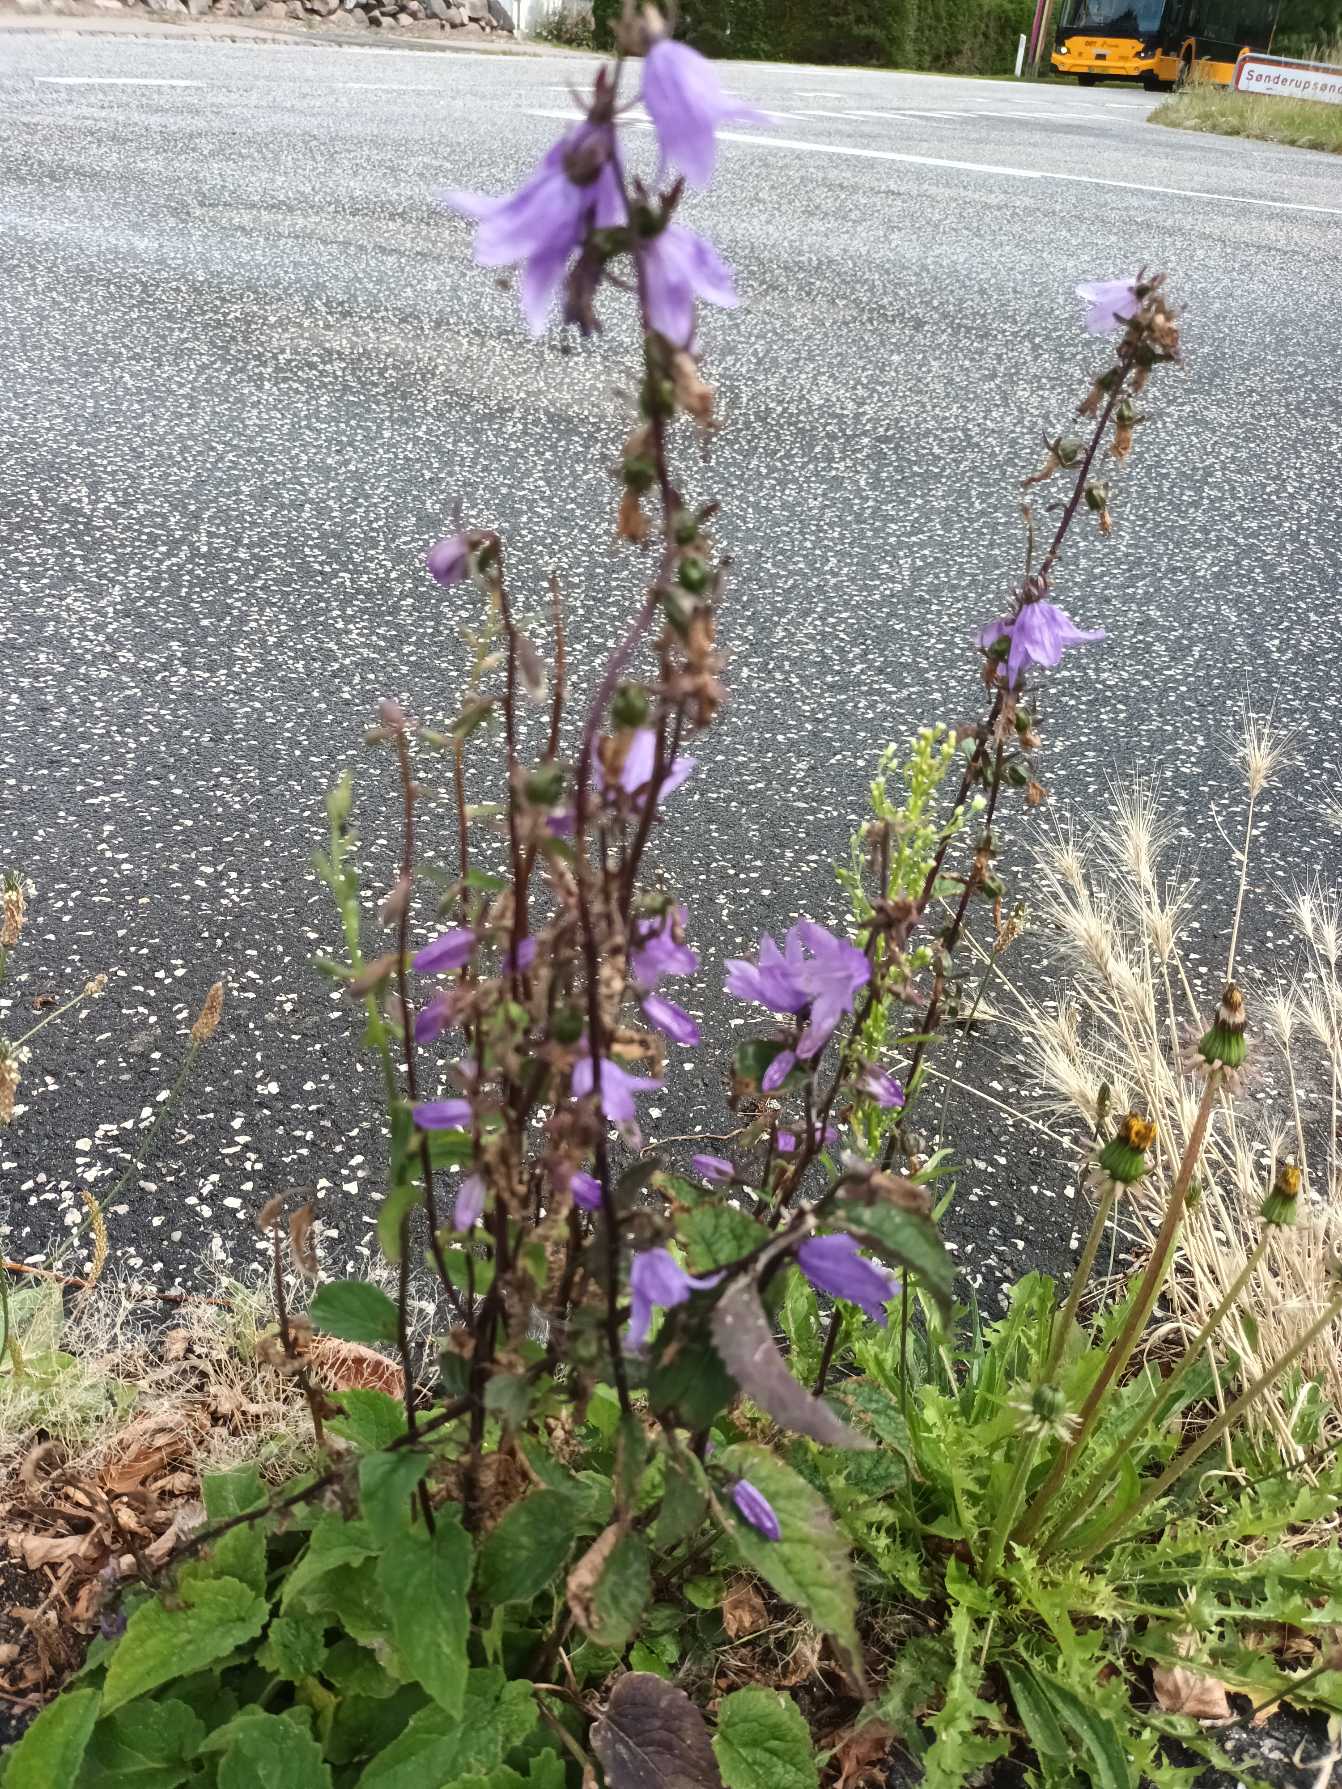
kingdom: Plantae
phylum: Tracheophyta
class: Magnoliopsida
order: Asterales
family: Campanulaceae
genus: Campanula
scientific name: Campanula rapunculoides
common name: Ensidig klokke
